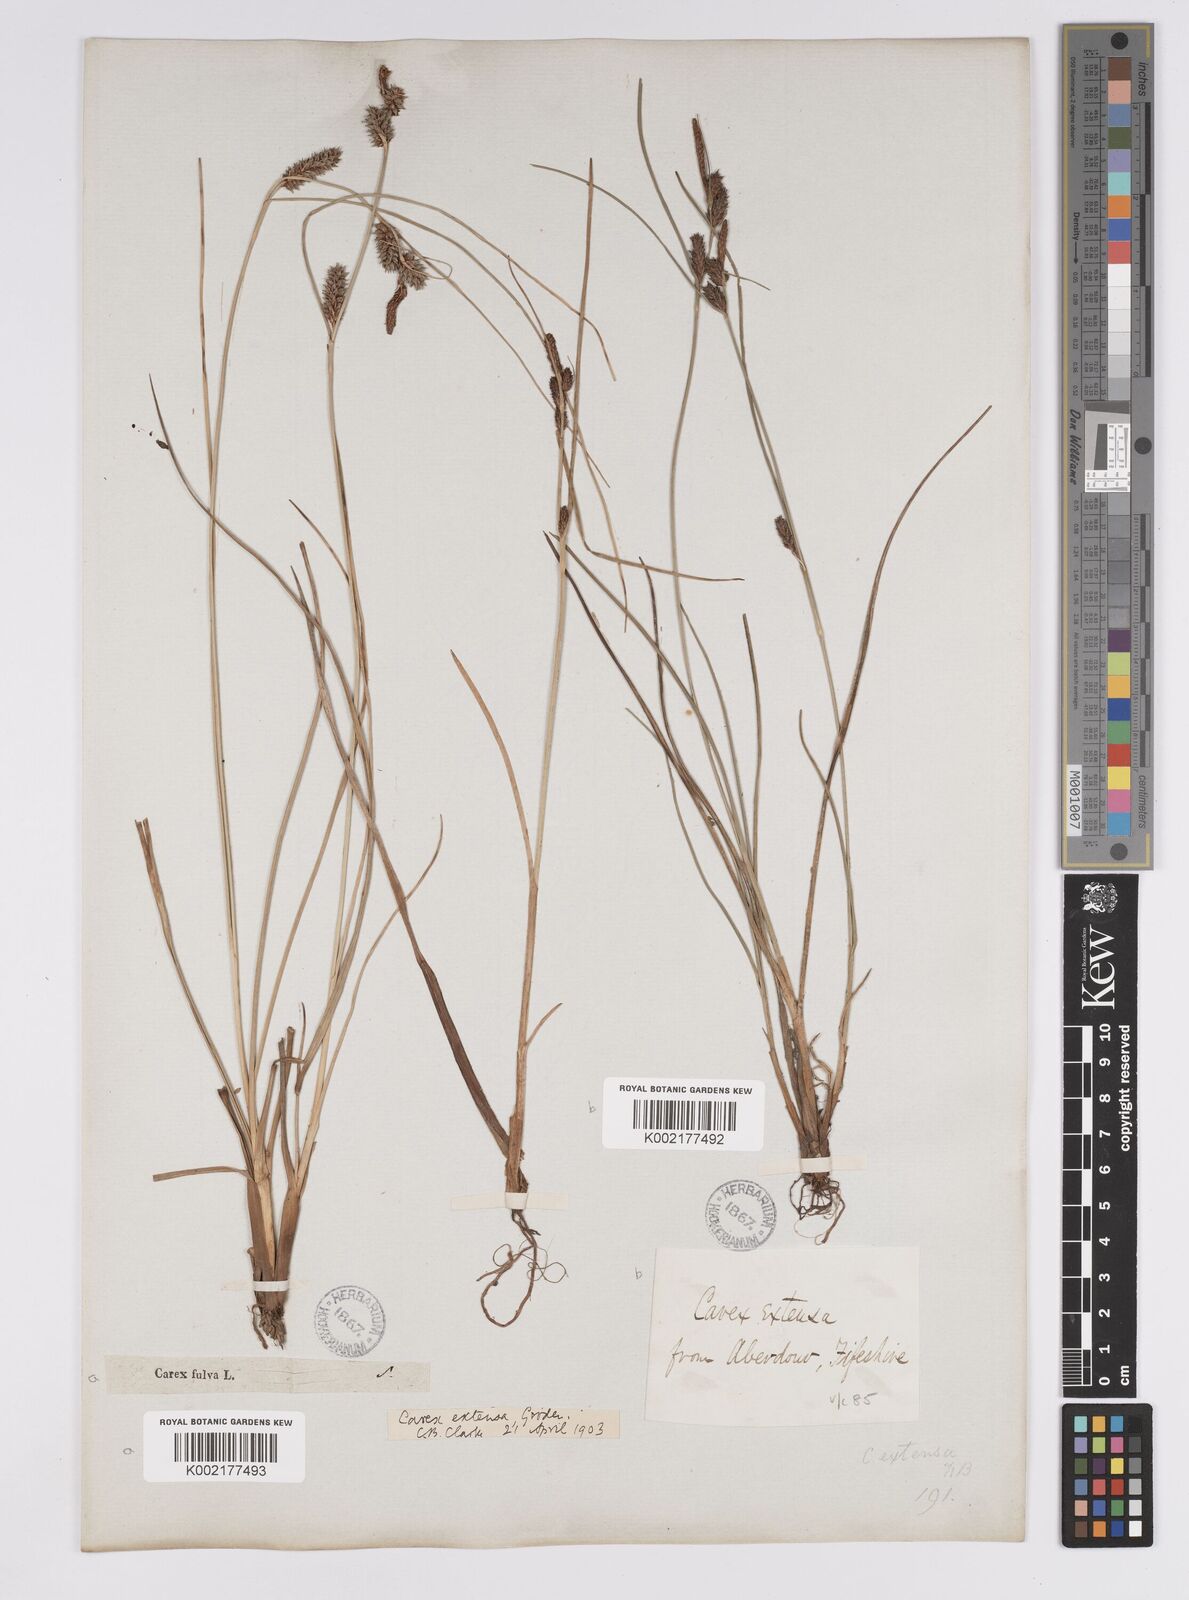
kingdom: Plantae
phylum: Tracheophyta
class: Liliopsida
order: Poales
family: Cyperaceae
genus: Carex
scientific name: Carex extensa
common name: Long-bracted sedge
